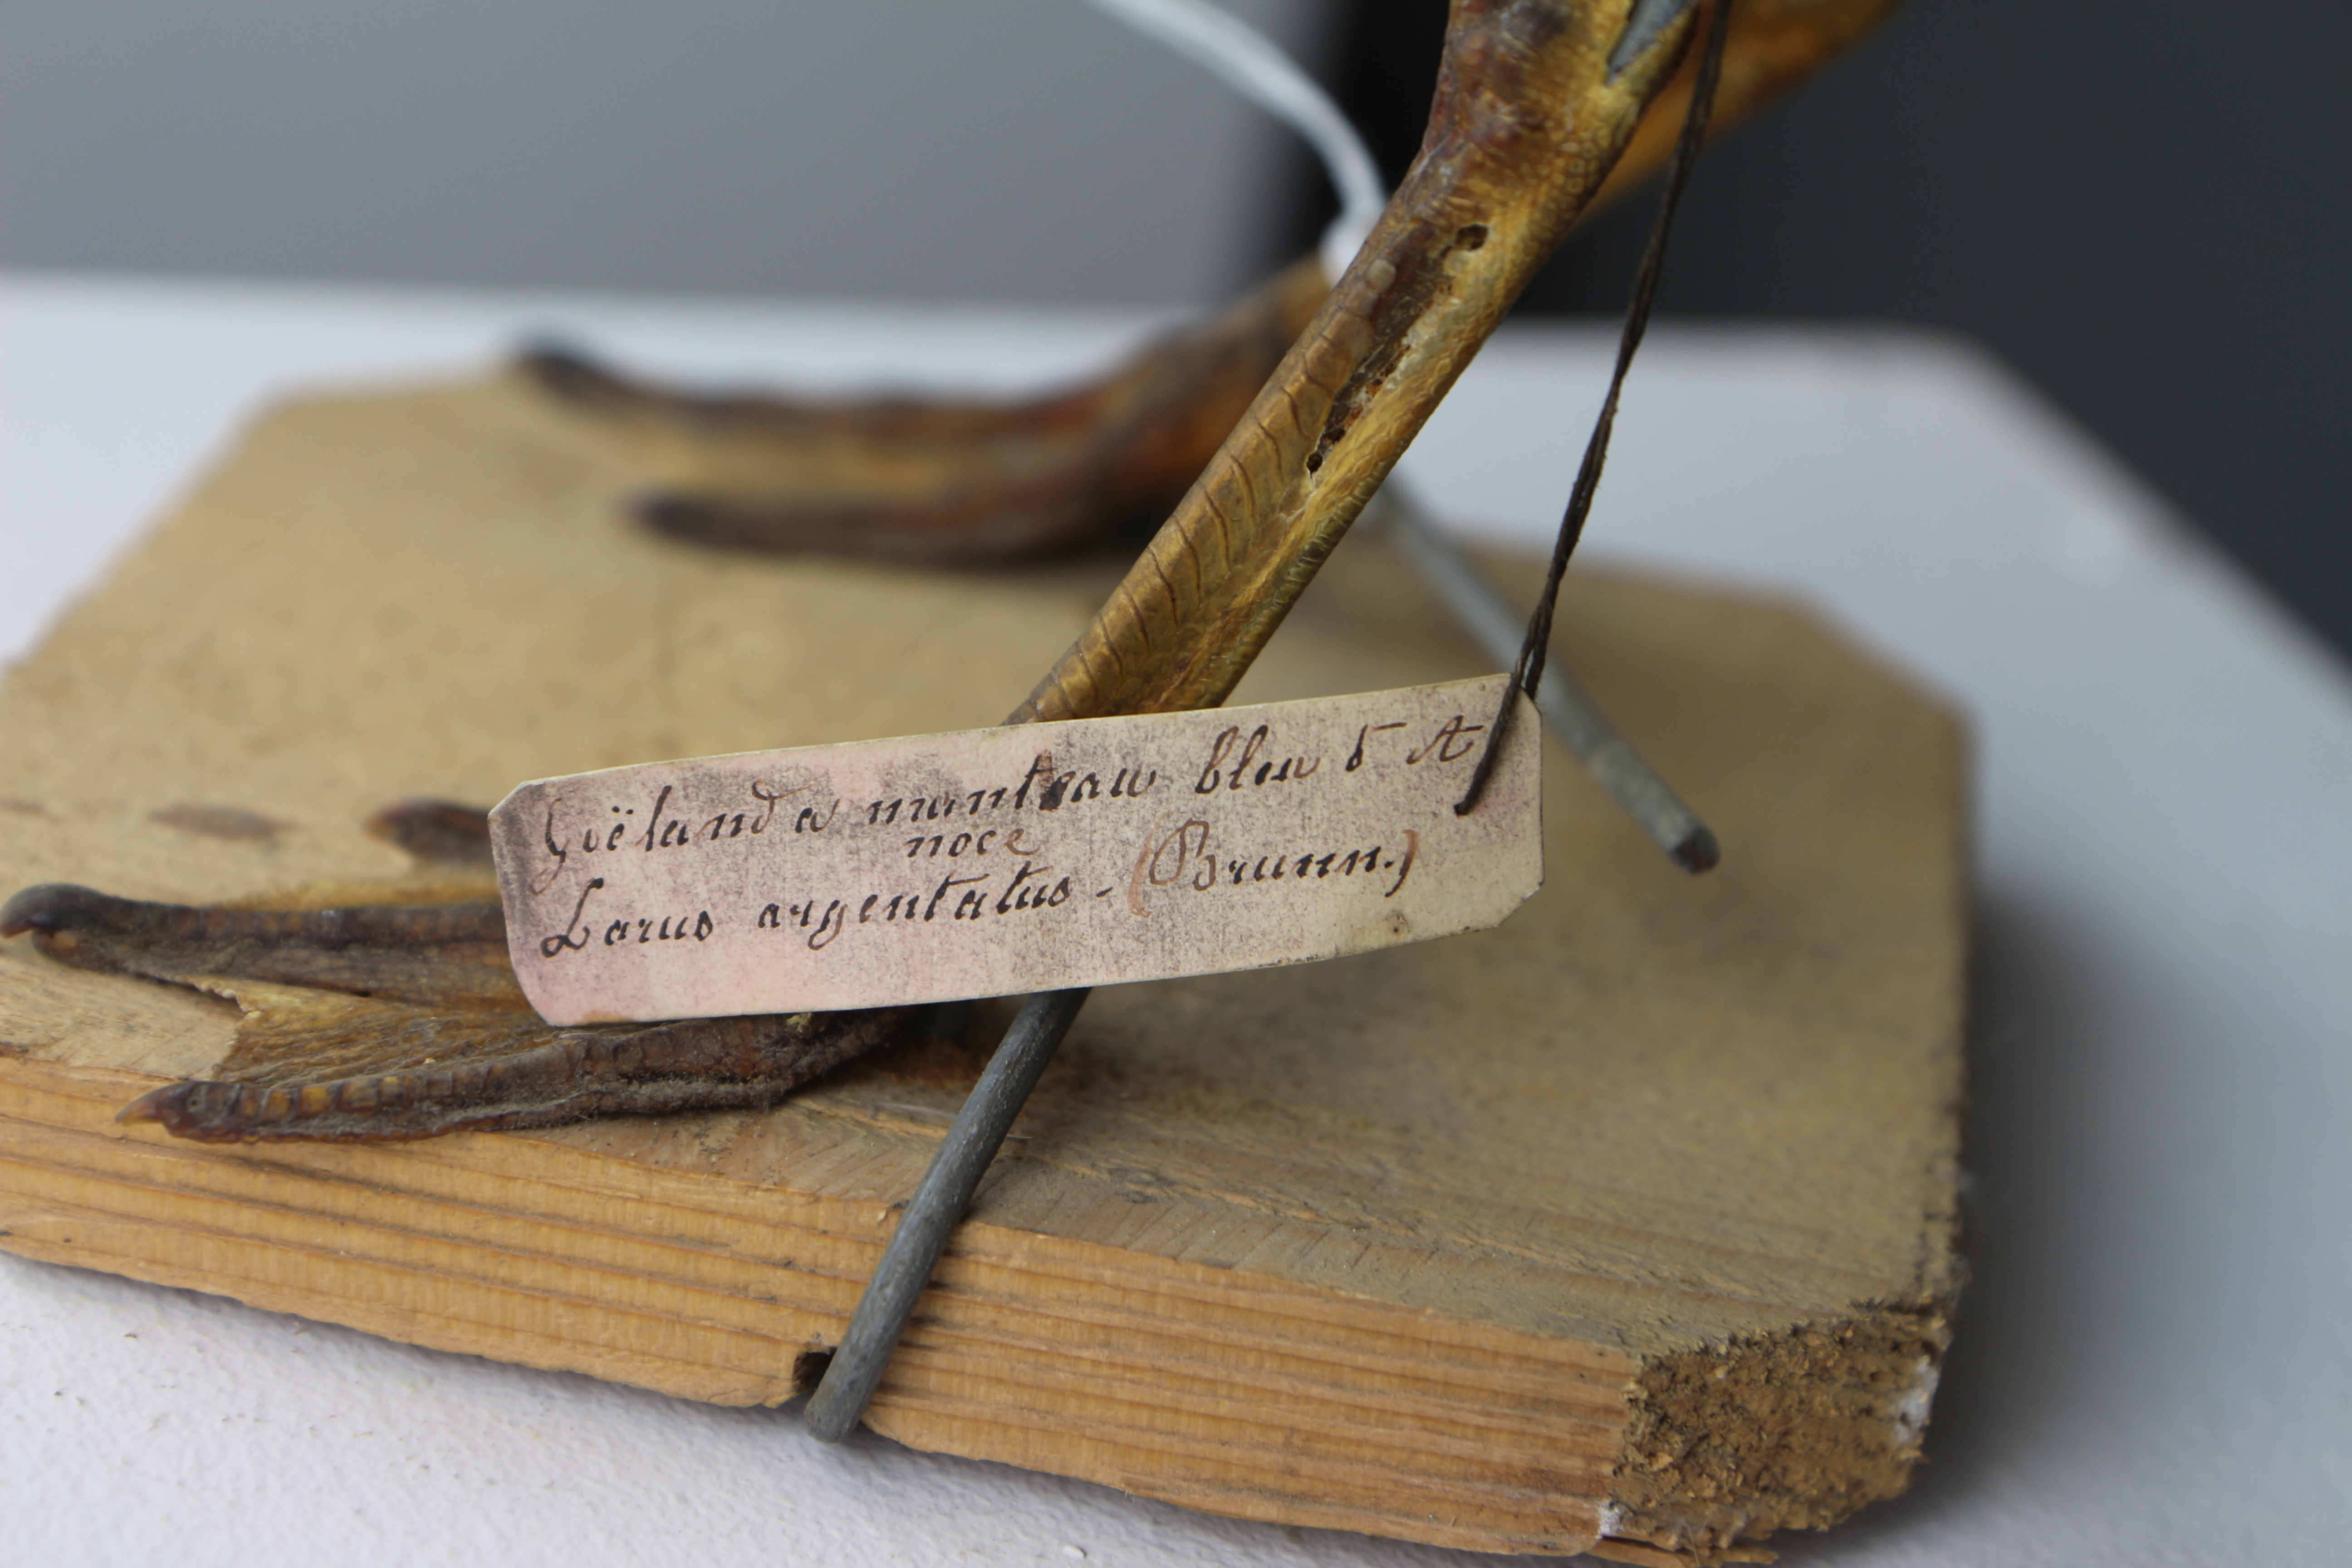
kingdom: Animalia
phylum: Chordata
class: Aves
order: Charadriiformes
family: Laridae
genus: Larus
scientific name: Larus argentatus
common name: Herring gull
